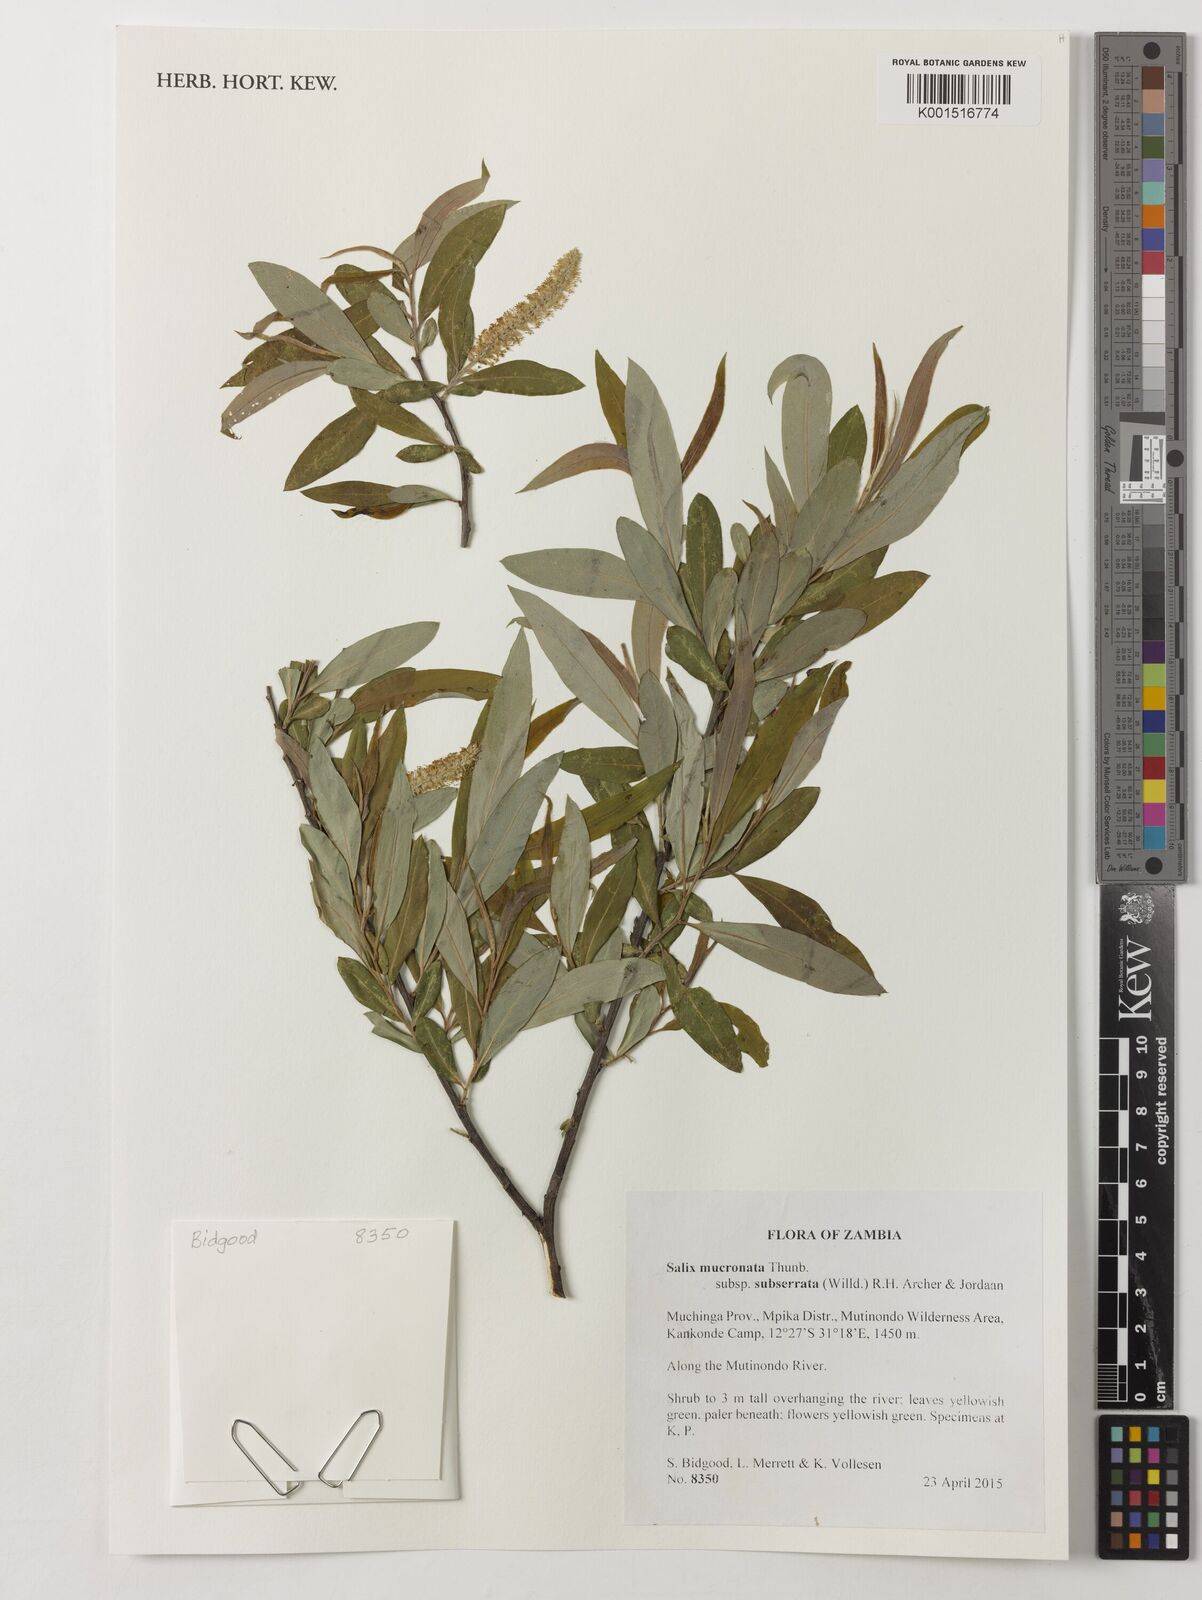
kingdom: Plantae
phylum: Tracheophyta
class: Magnoliopsida
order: Malpighiales
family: Salicaceae
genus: Salix
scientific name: Salix mucronata
